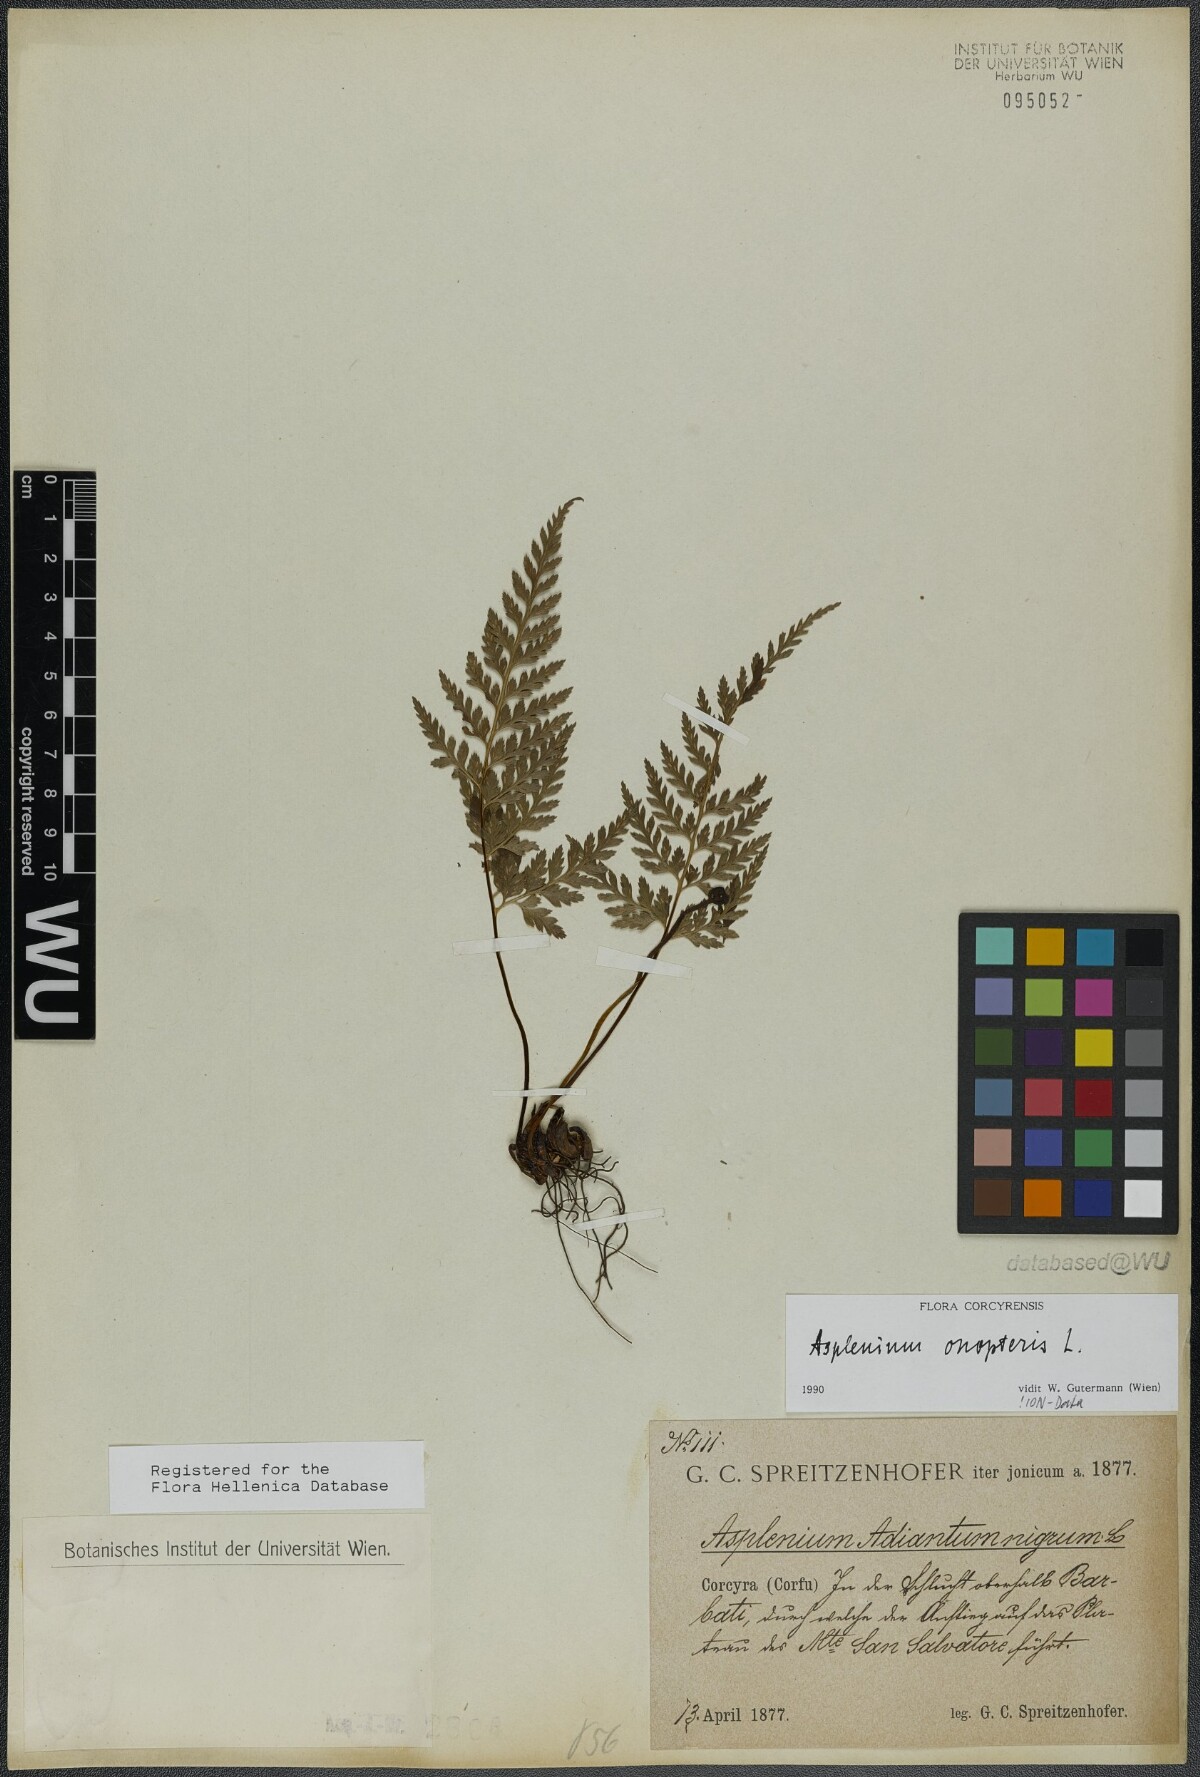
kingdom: Plantae
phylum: Tracheophyta
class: Polypodiopsida
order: Polypodiales
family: Aspleniaceae
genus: Asplenium
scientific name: Asplenium onopteris
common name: Irish spleenwort
